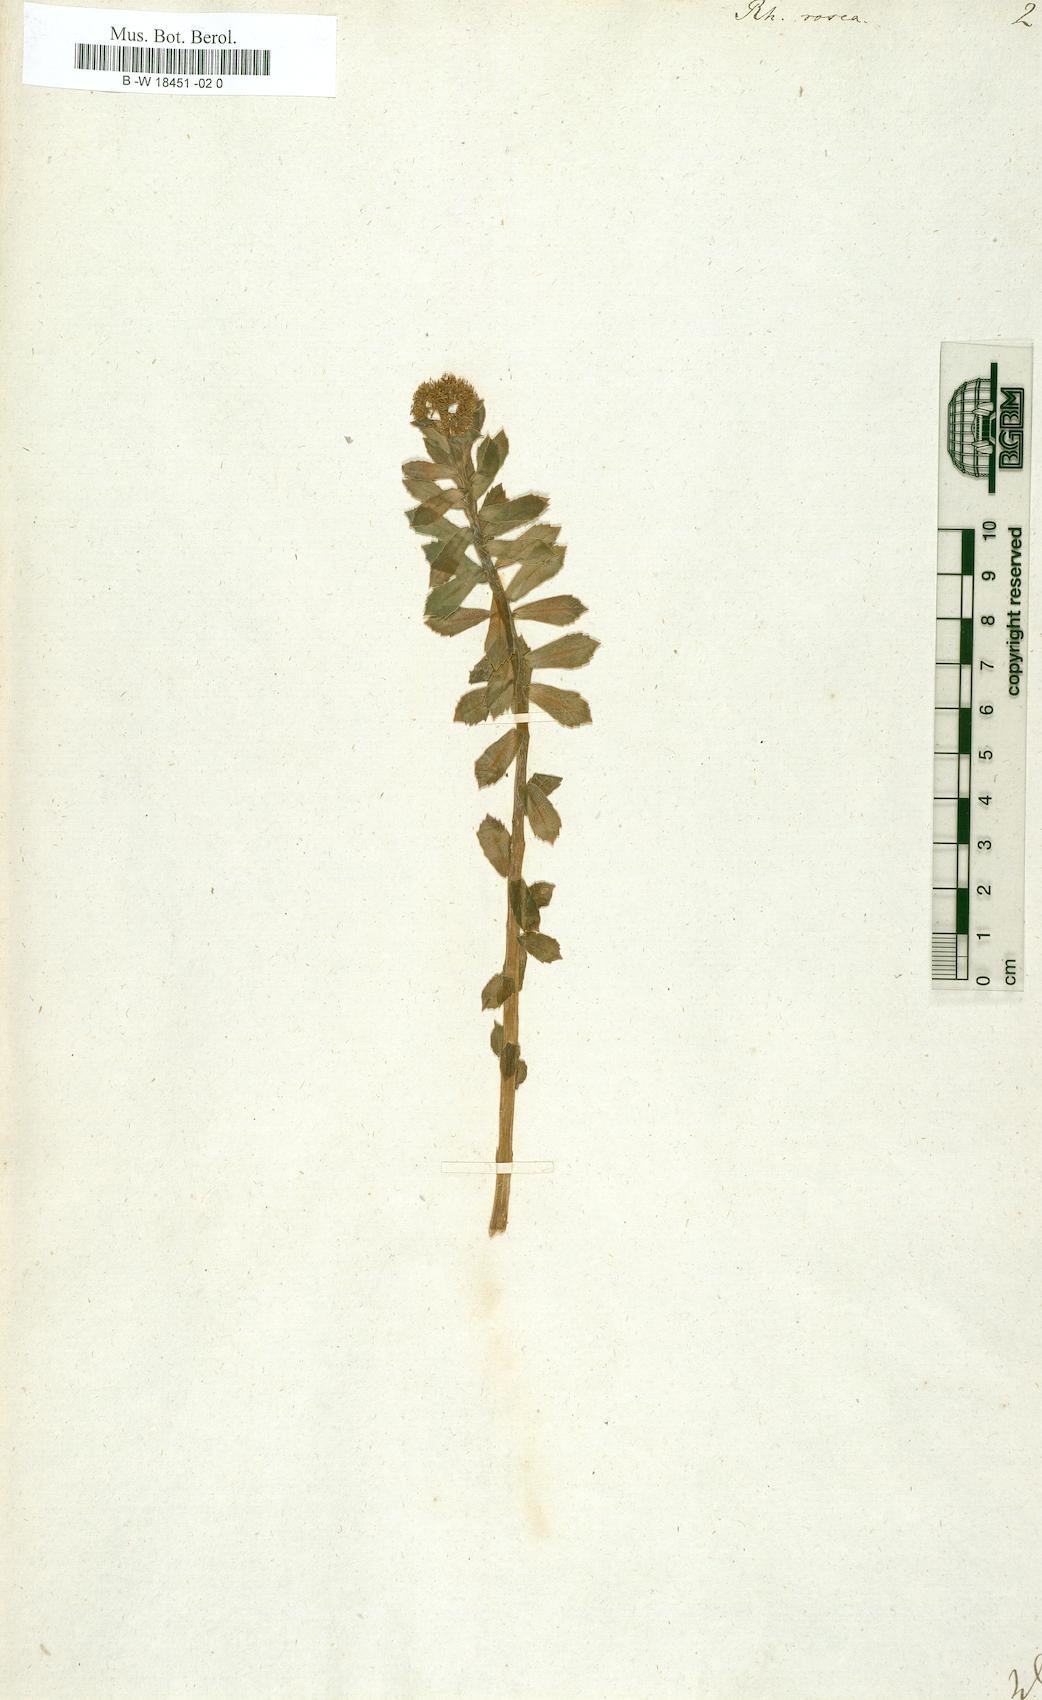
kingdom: Plantae
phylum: Tracheophyta
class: Magnoliopsida
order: Saxifragales
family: Crassulaceae
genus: Rhodiola
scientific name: Rhodiola rosea
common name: Roseroot
